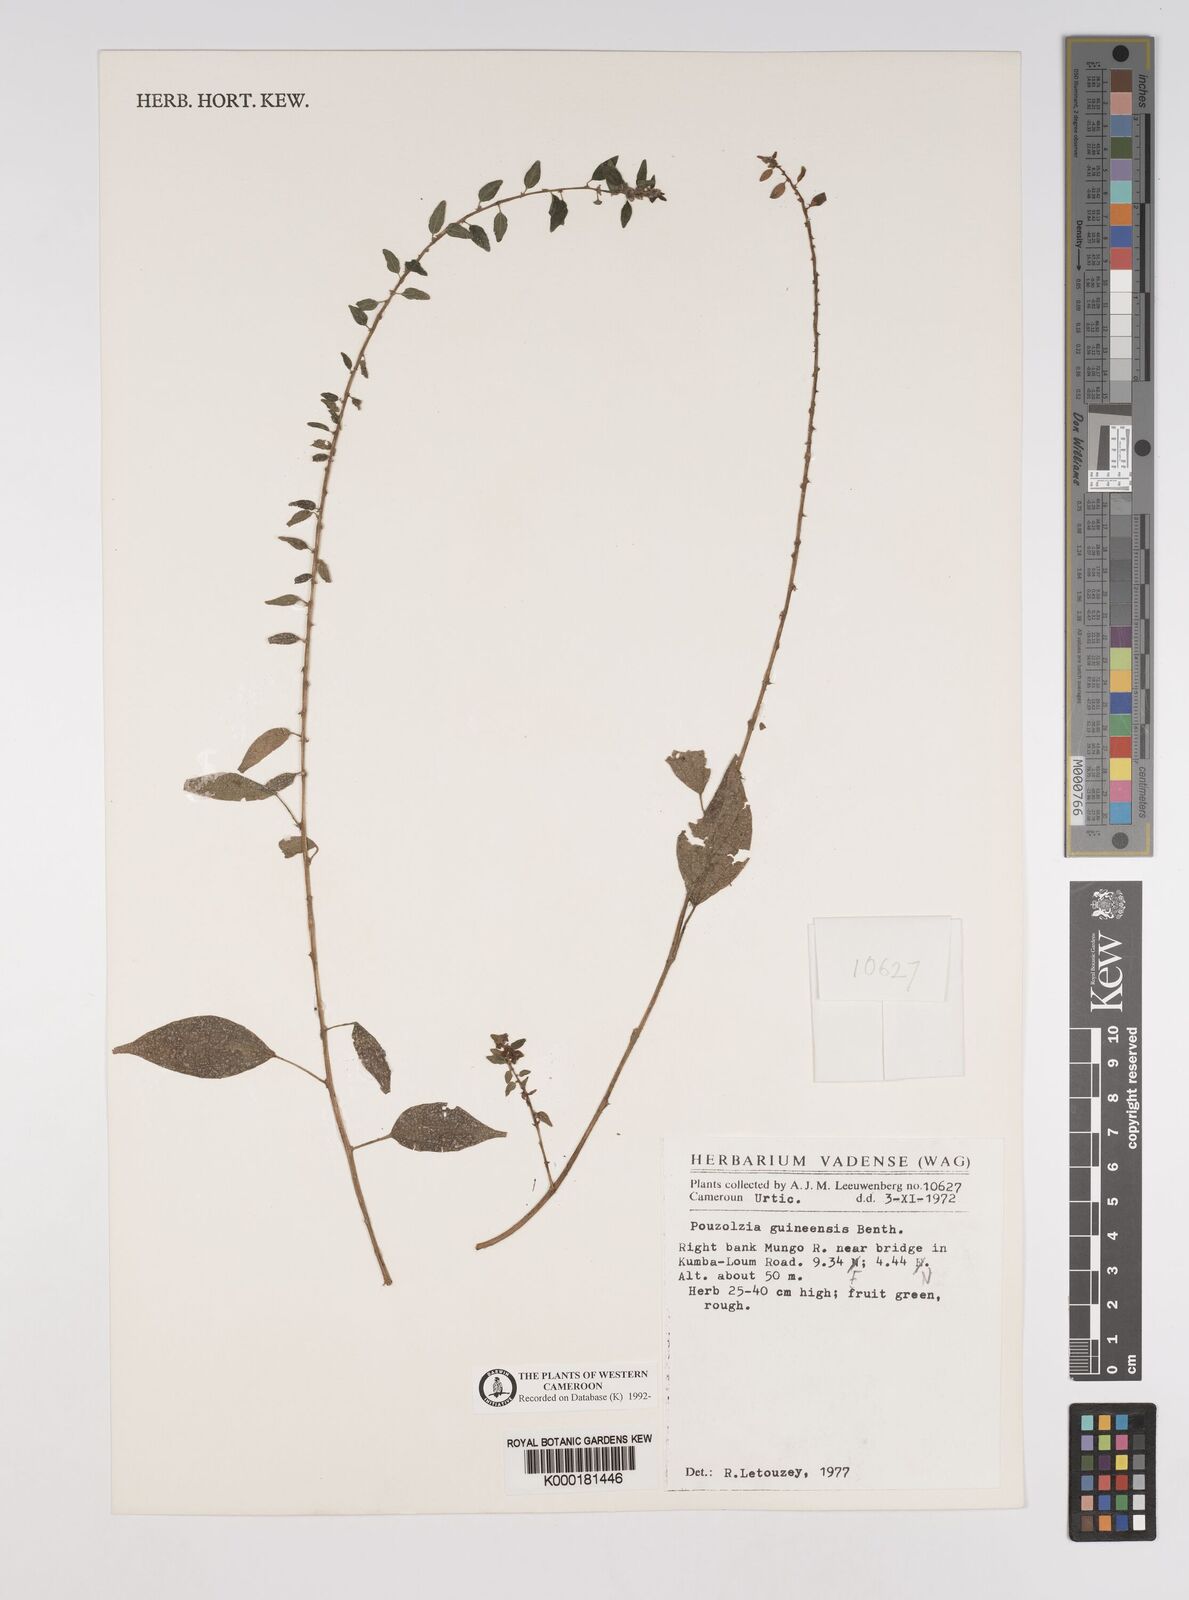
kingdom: Plantae
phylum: Tracheophyta
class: Magnoliopsida
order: Rosales
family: Urticaceae
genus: Pouzolzia
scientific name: Pouzolzia guineensis
